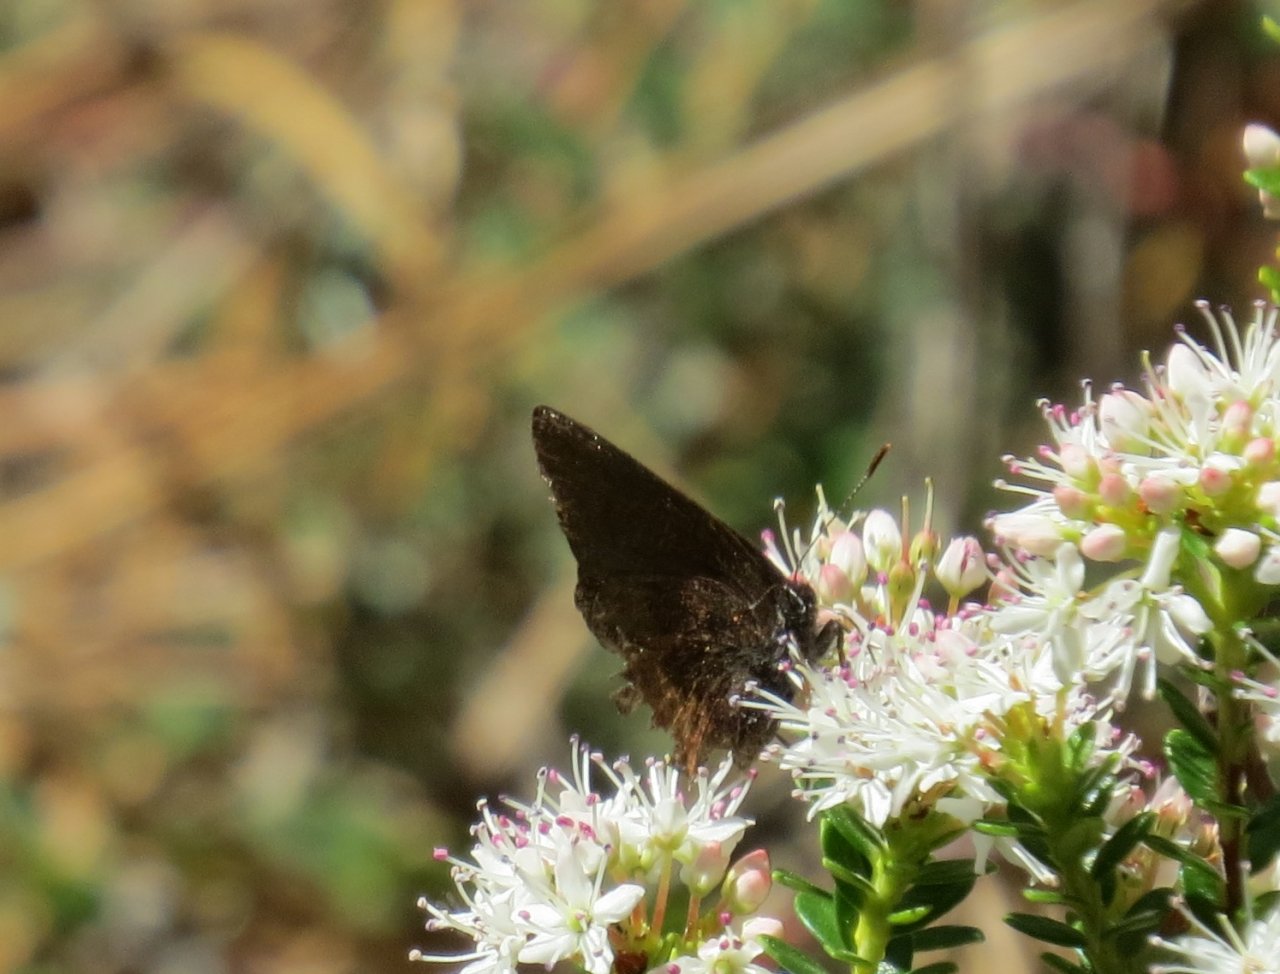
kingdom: Animalia
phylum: Arthropoda
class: Insecta
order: Lepidoptera
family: Lycaenidae
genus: Incisalia
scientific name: Incisalia irioides
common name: Brown Elfin
